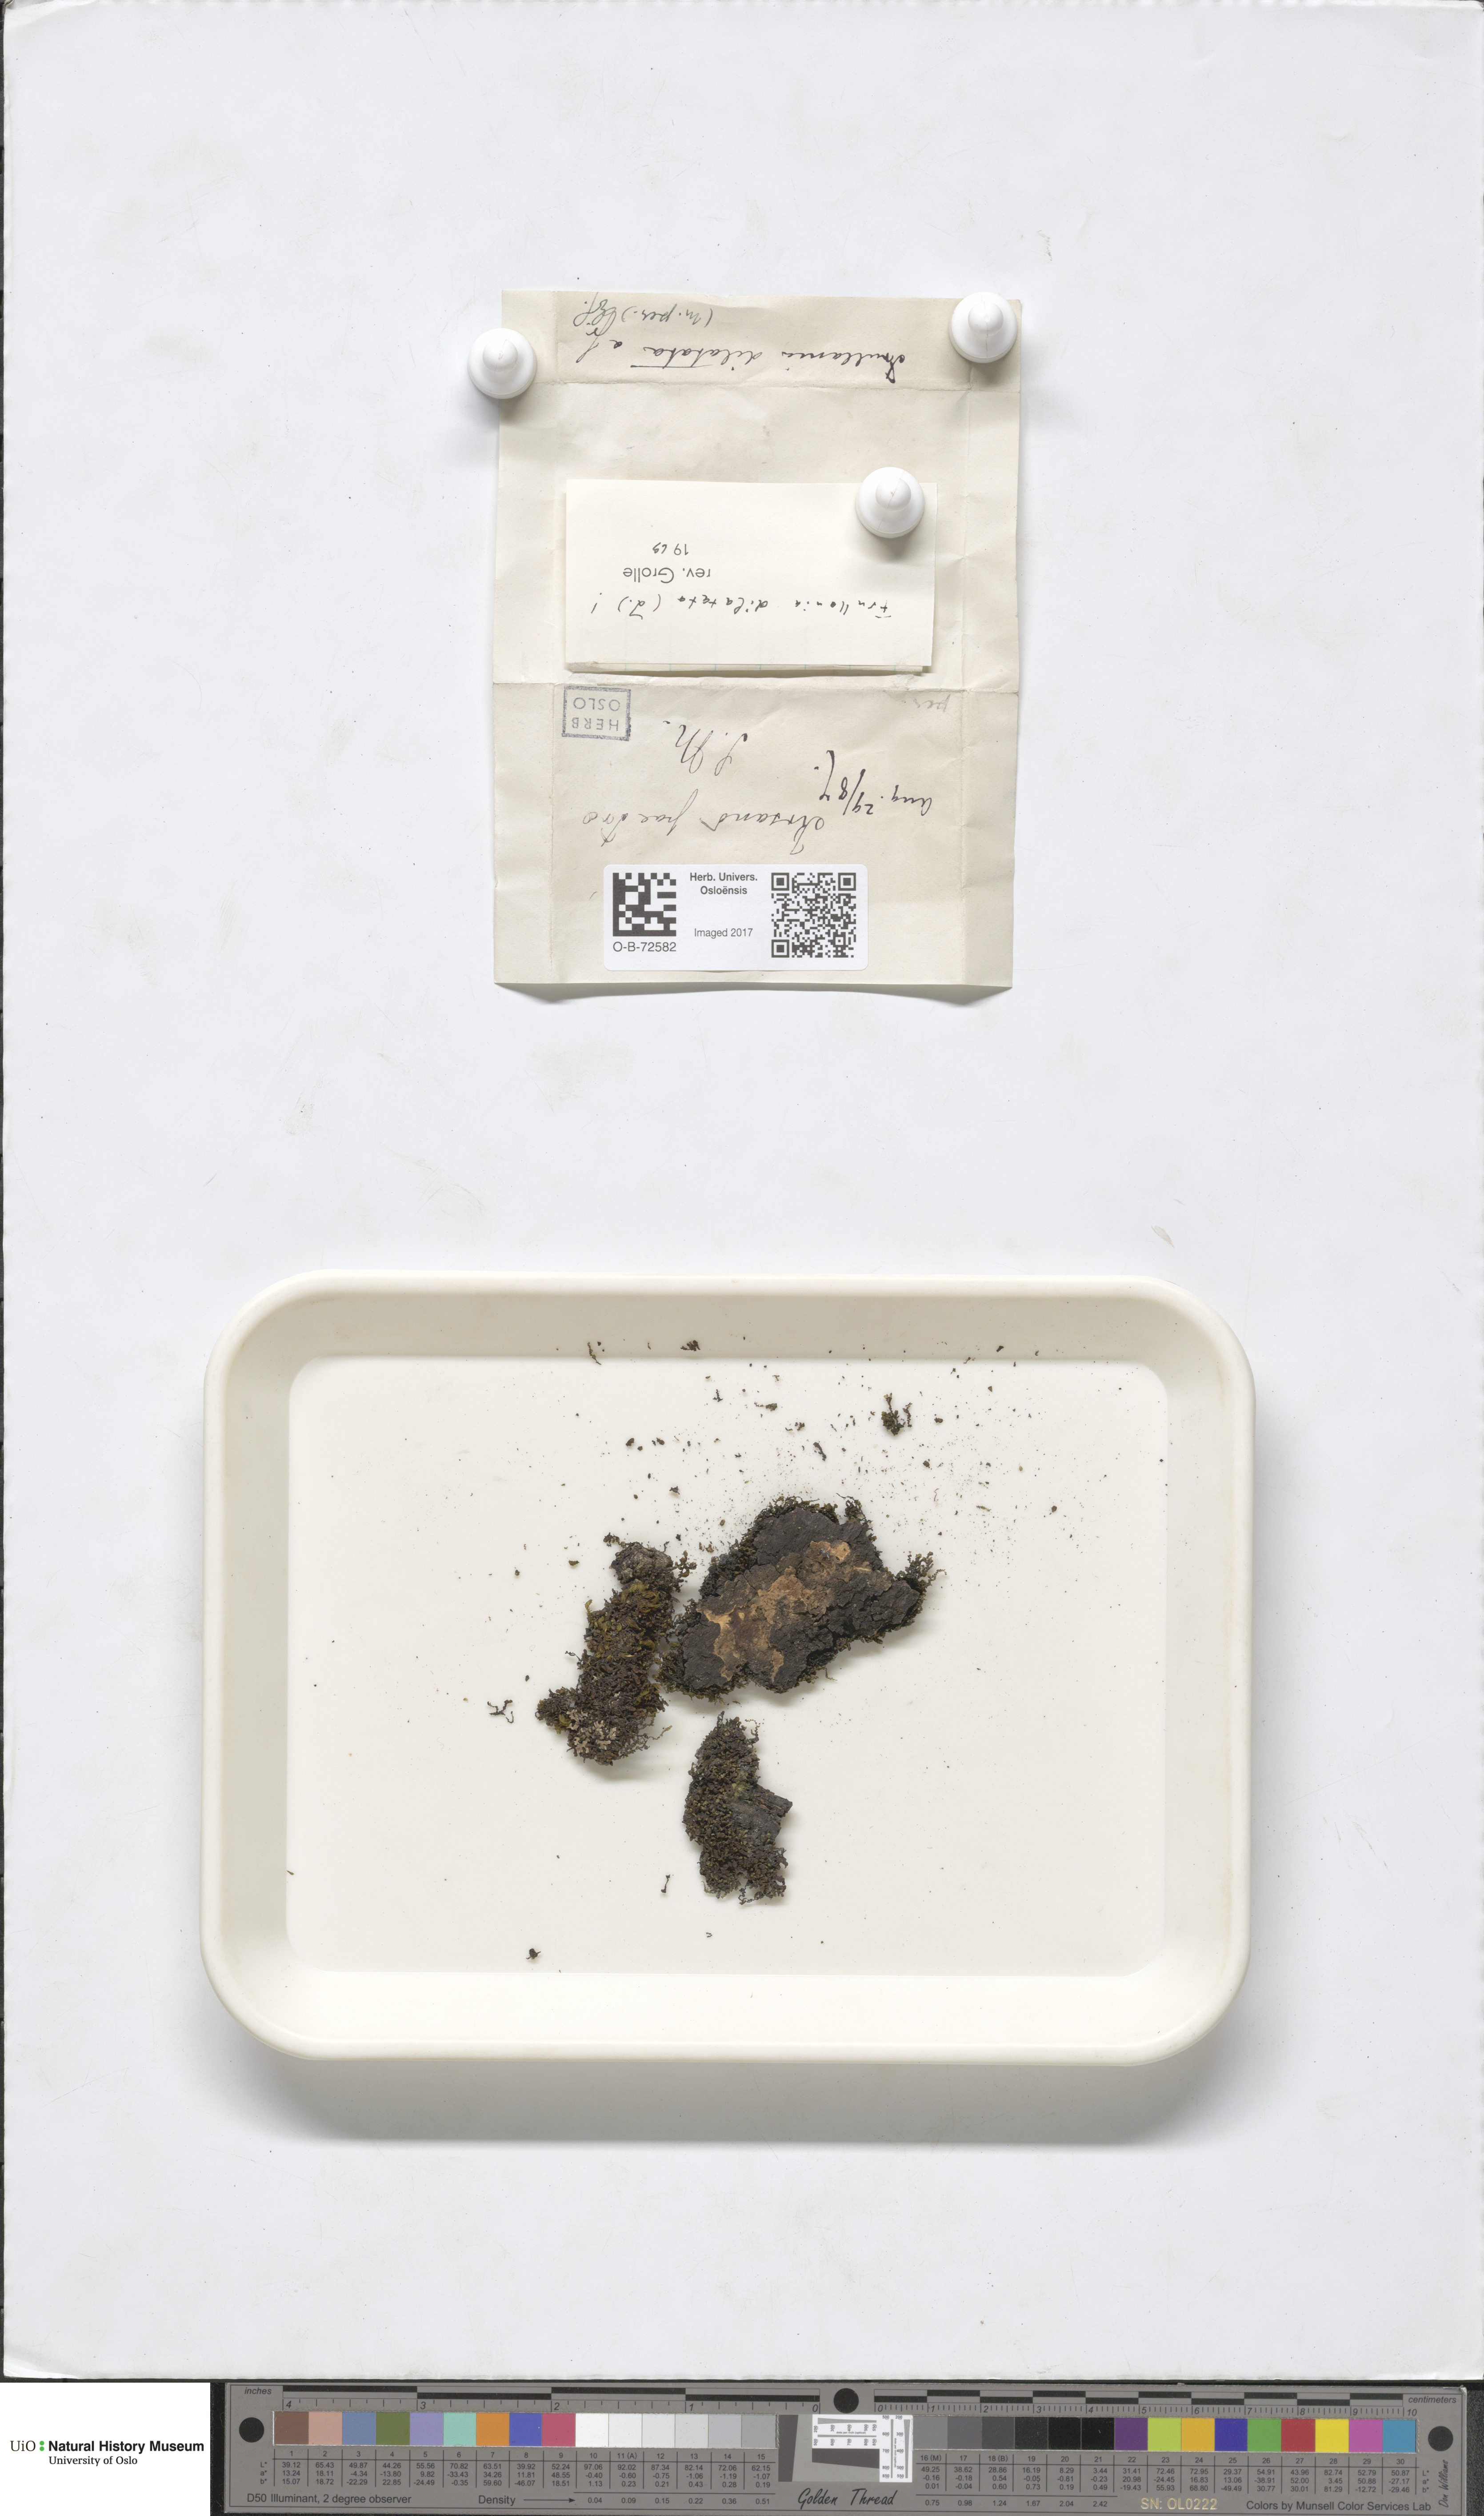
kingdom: Plantae
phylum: Marchantiophyta
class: Jungermanniopsida
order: Porellales
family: Frullaniaceae
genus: Frullania
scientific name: Frullania dilatata
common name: Dilated scalewort
